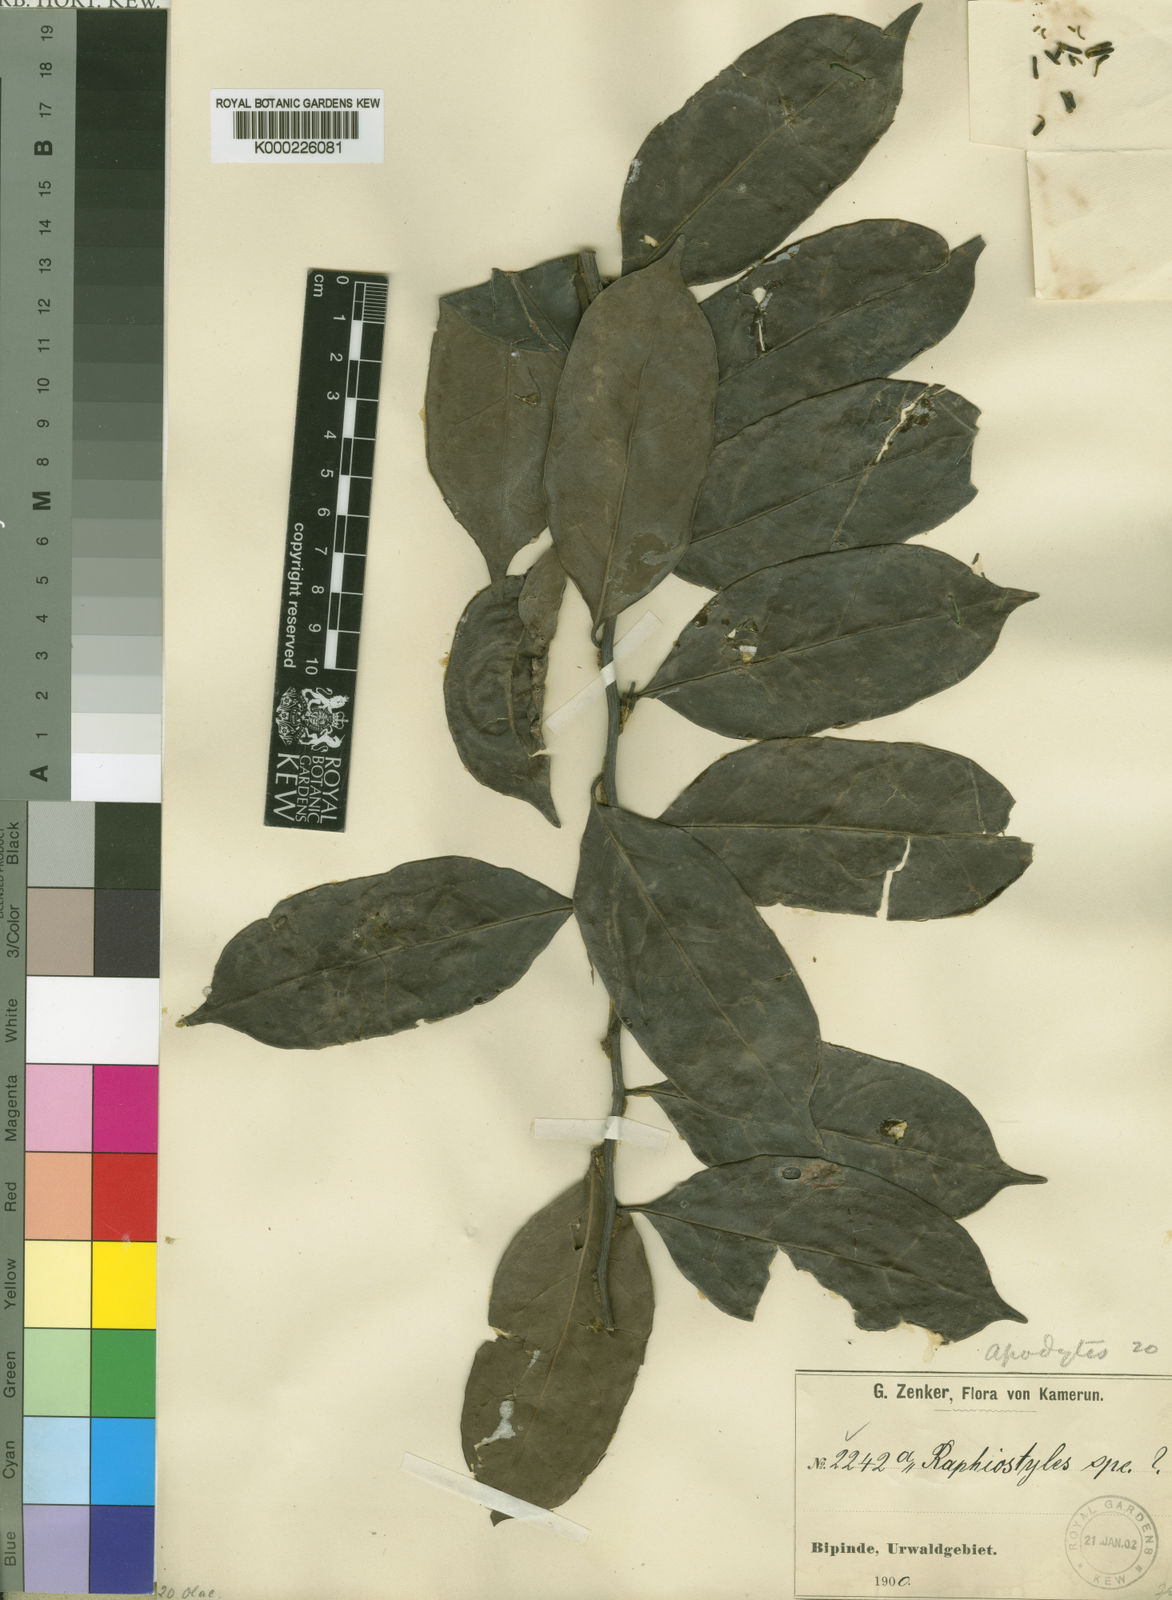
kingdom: Plantae
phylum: Tracheophyta
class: Magnoliopsida
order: Metteniusales
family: Metteniusaceae
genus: Rhaphiostylis
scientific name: Rhaphiostylis ferruginea
